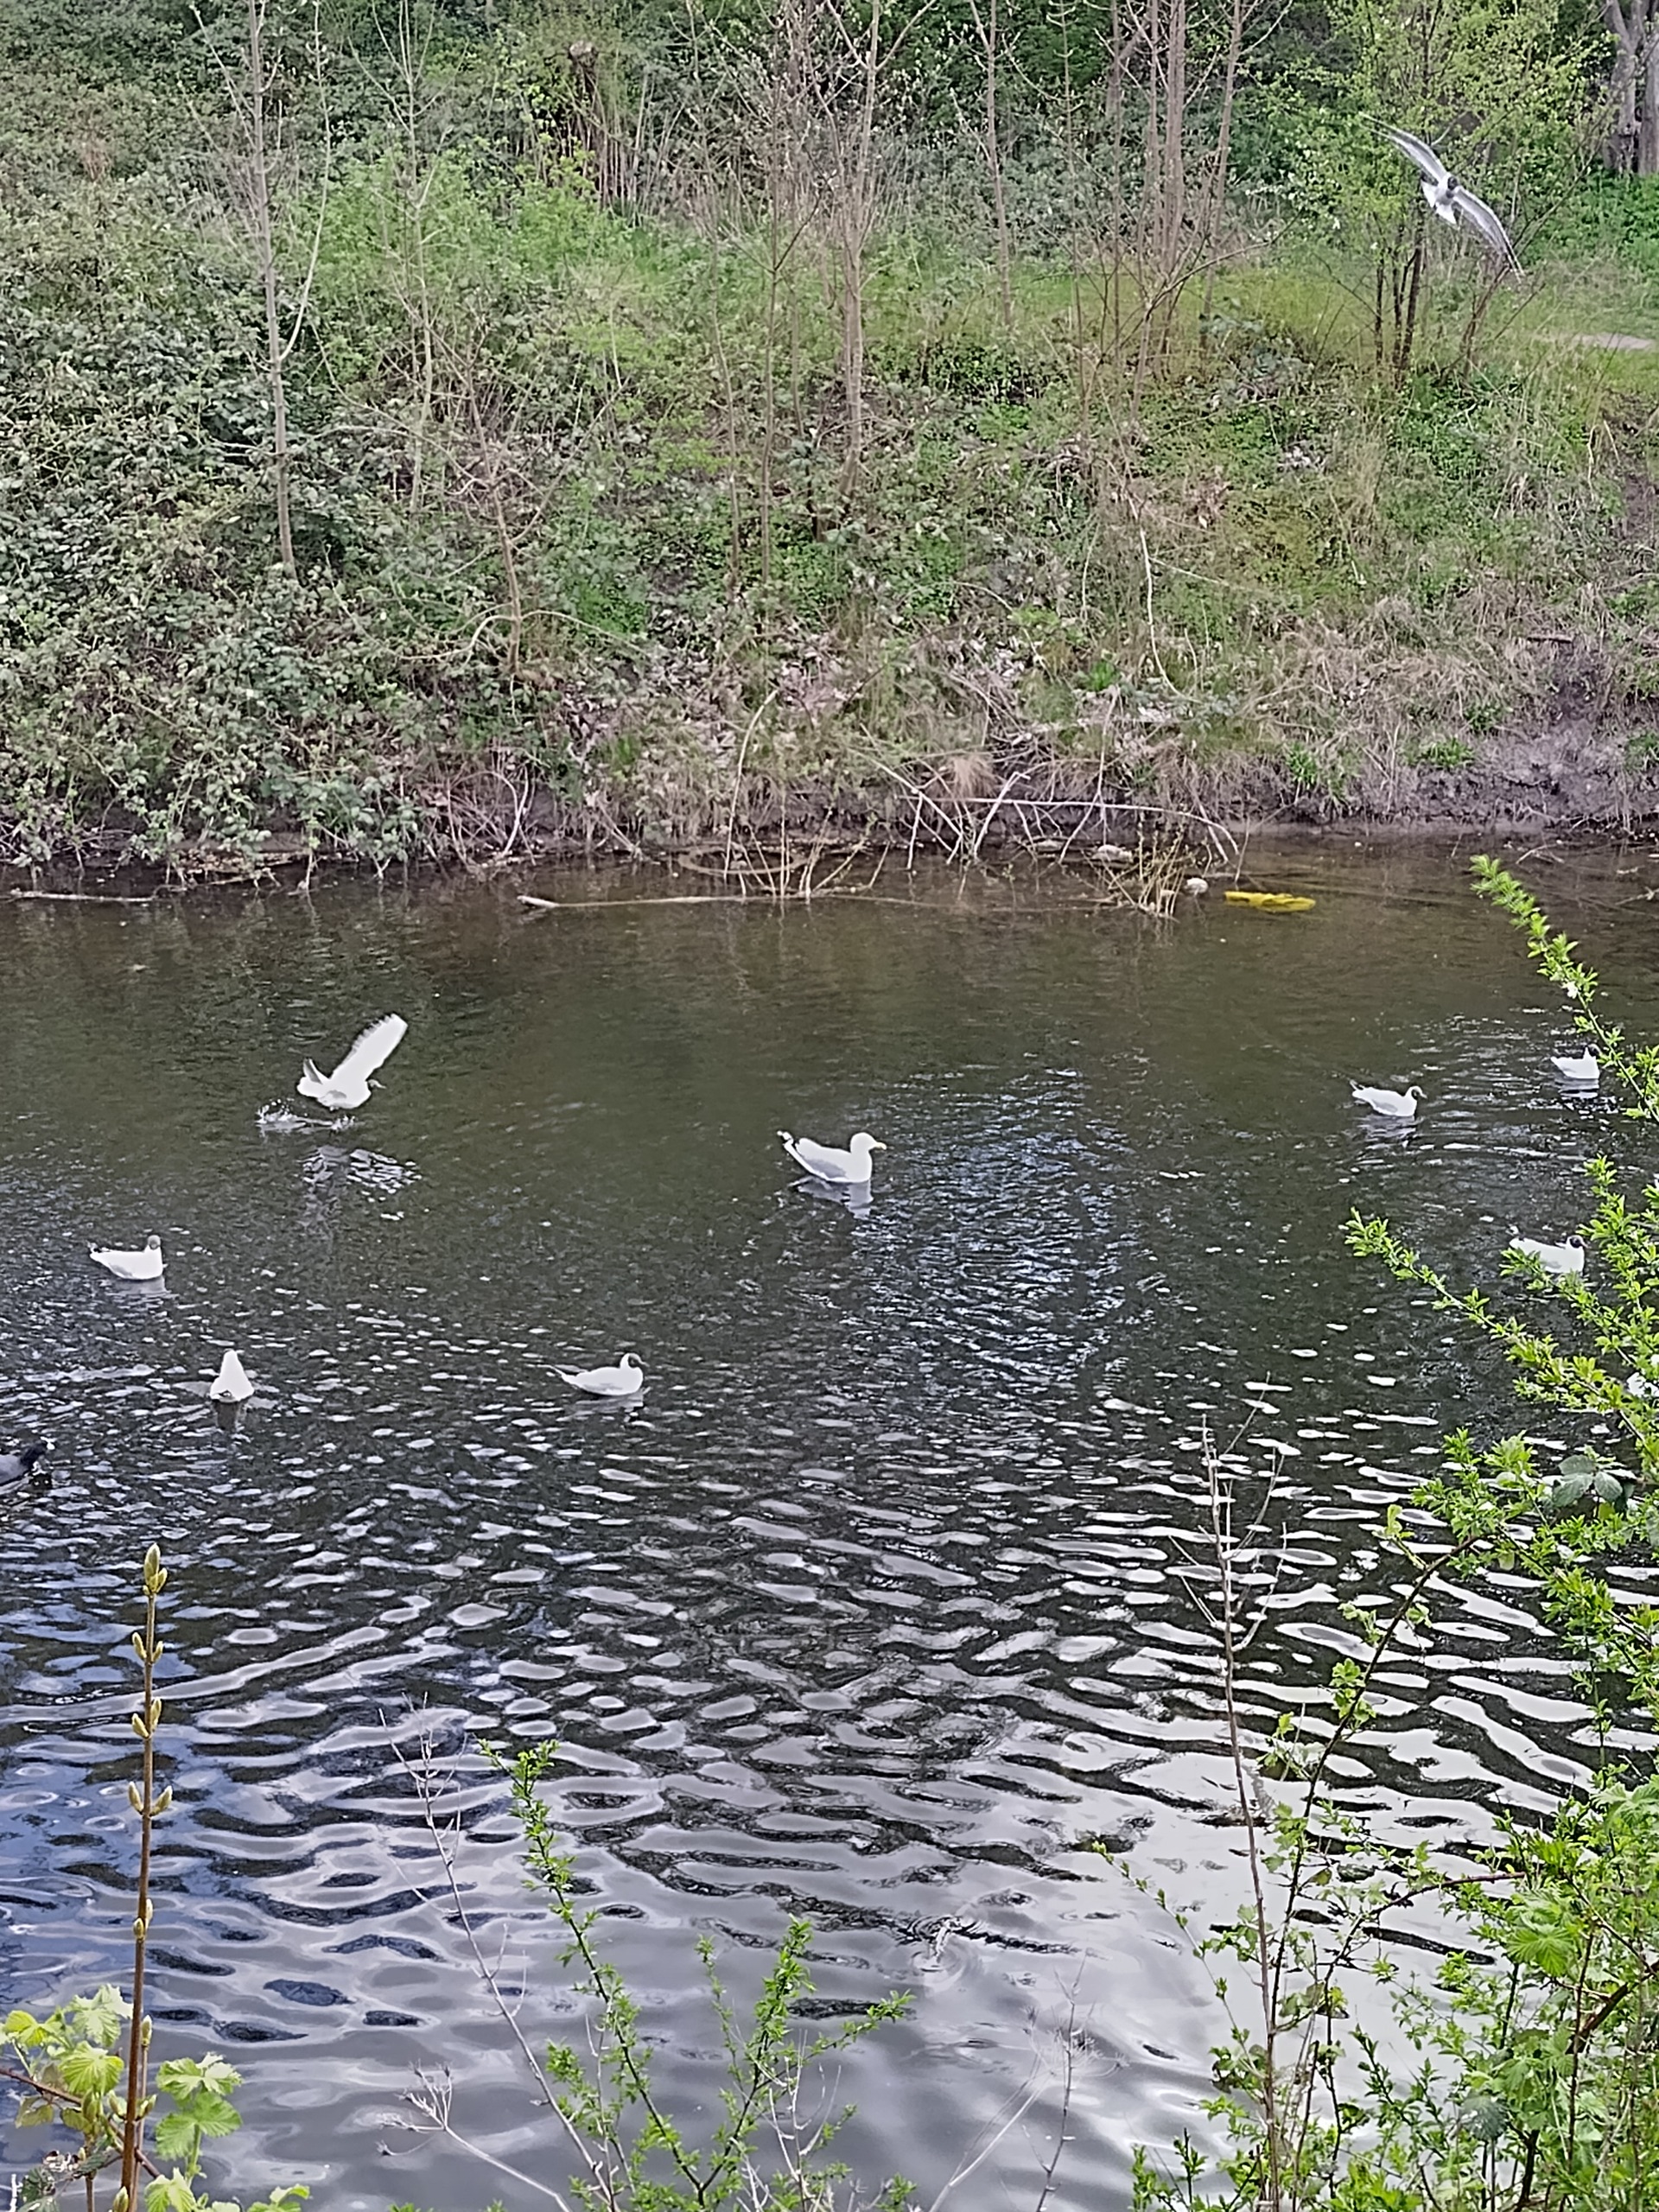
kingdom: Animalia
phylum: Chordata
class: Aves
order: Charadriiformes
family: Laridae
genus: Larus
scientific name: Larus argentatus
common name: Sølvmåge
